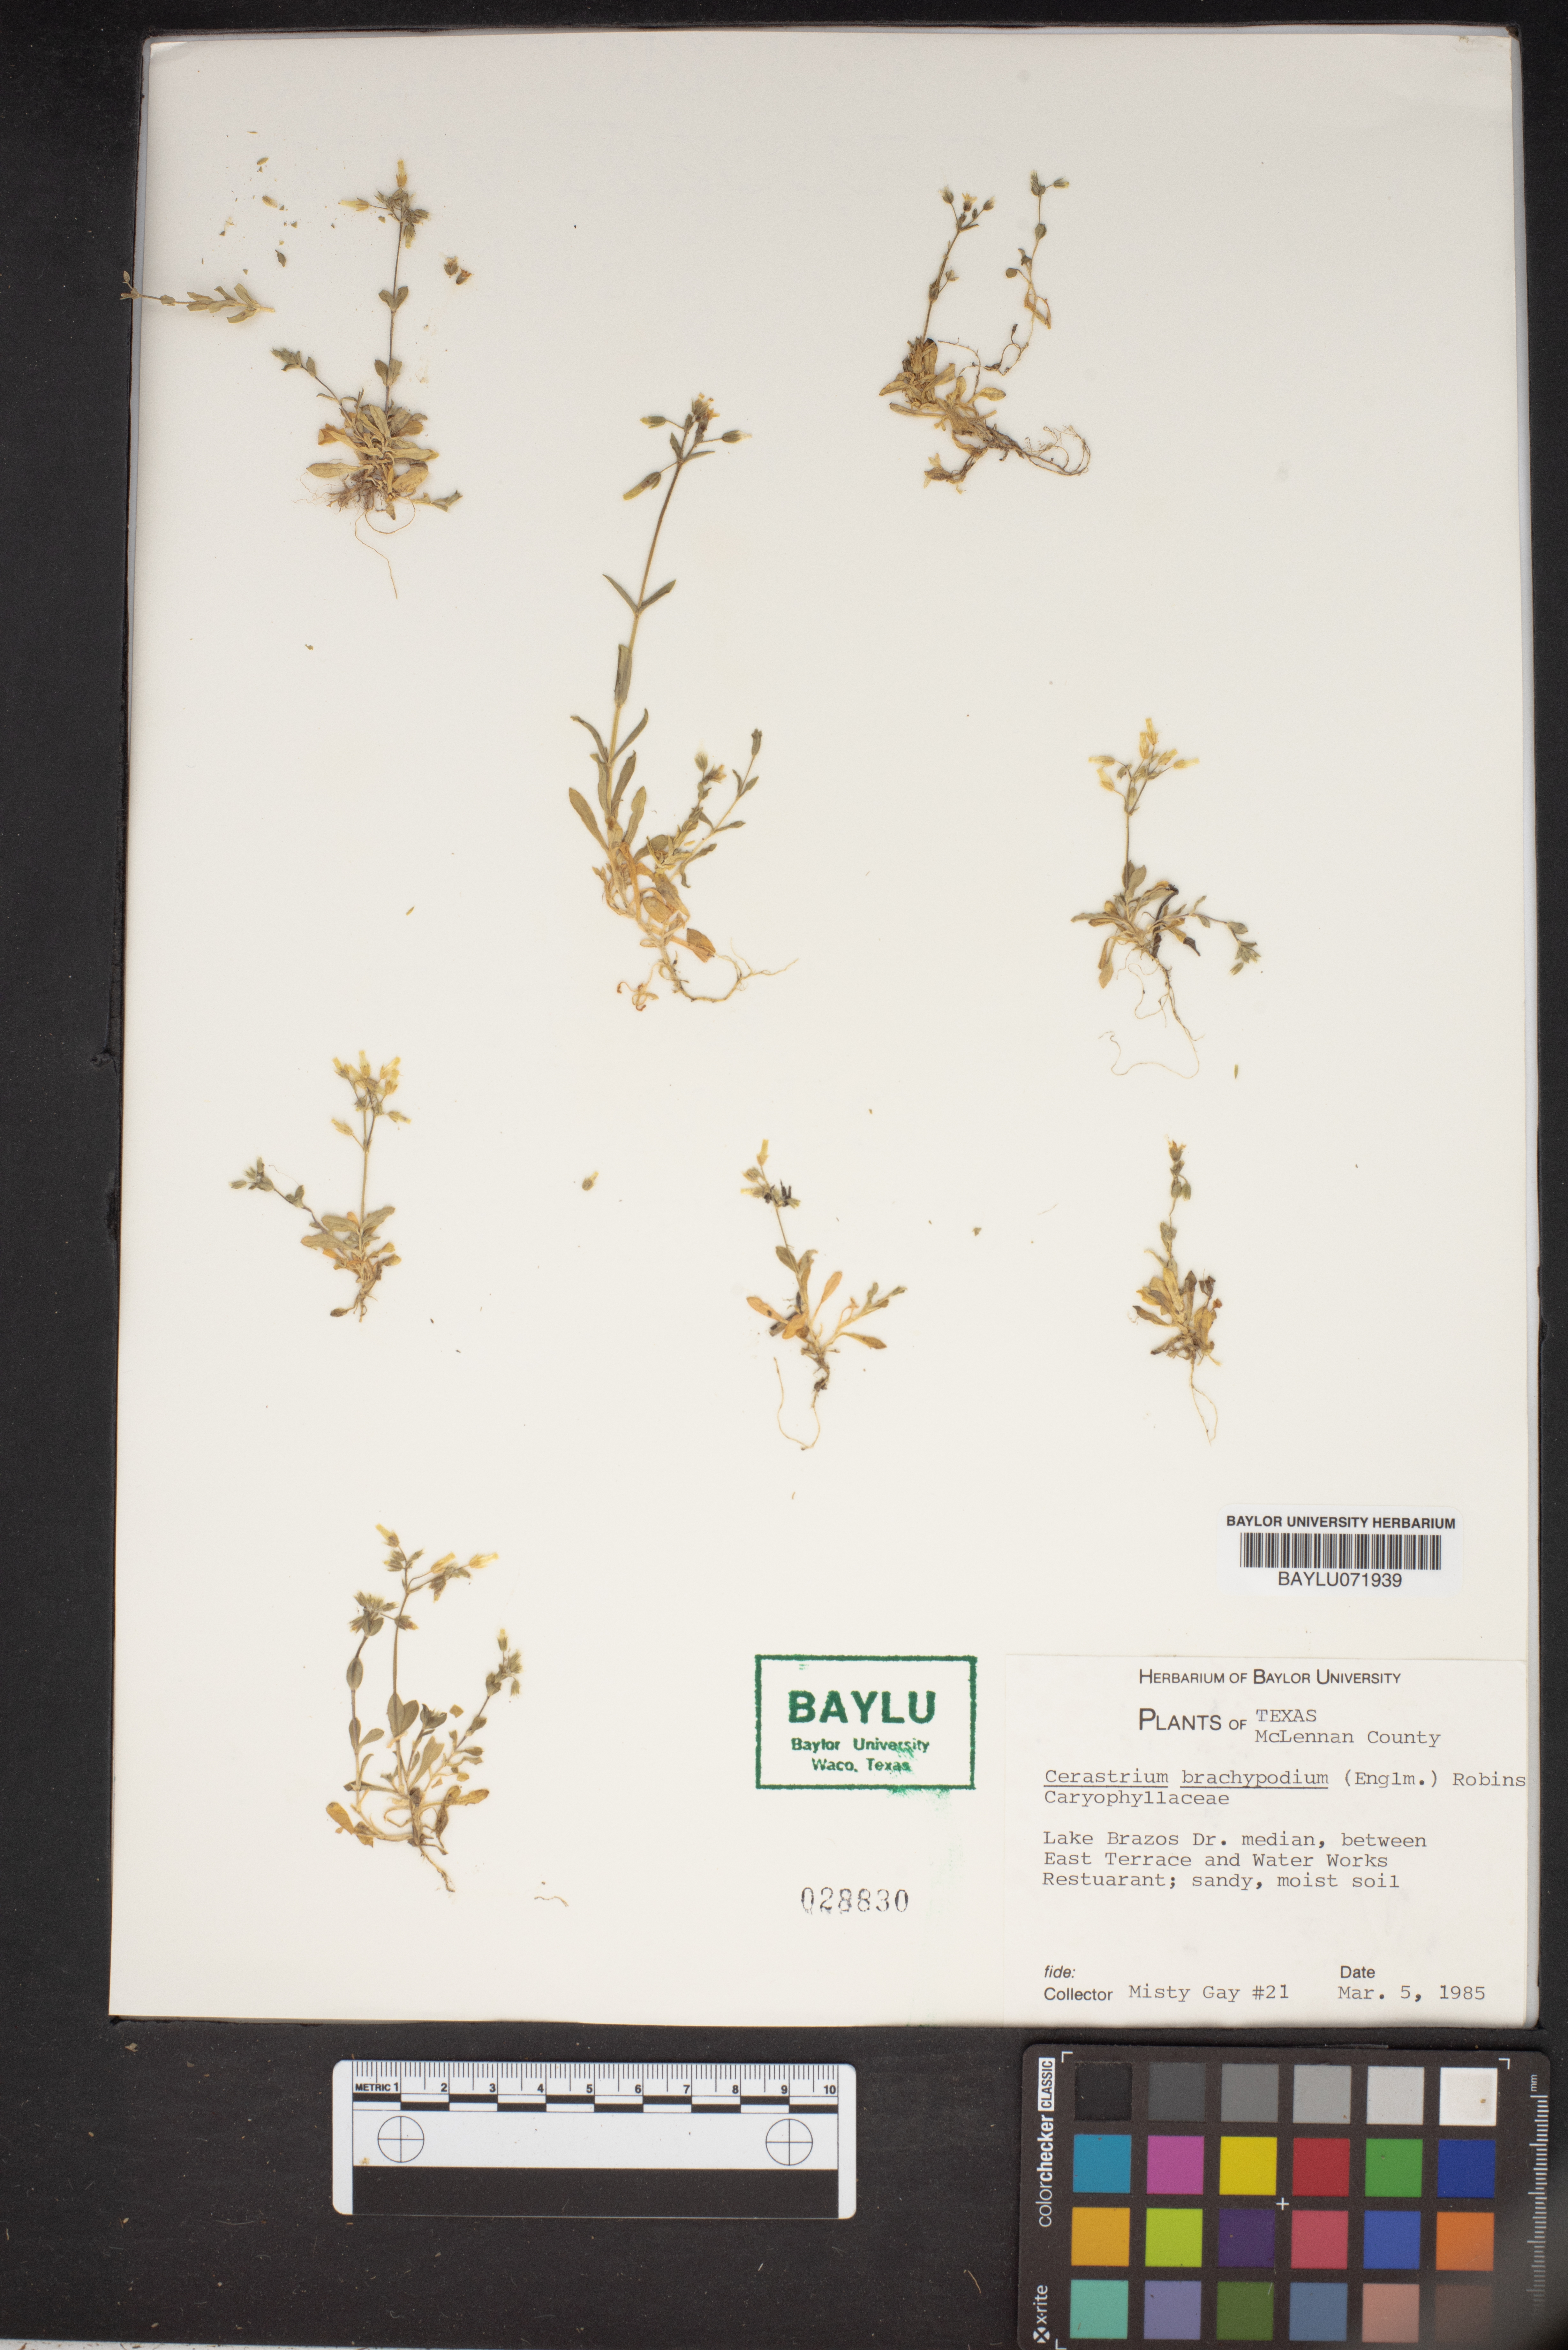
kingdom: Plantae
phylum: Tracheophyta
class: Magnoliopsida
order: Caryophyllales
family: Caryophyllaceae
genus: Cerastium
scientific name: Cerastium brachypodum
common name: Short-pedicelled nodding chickweed
